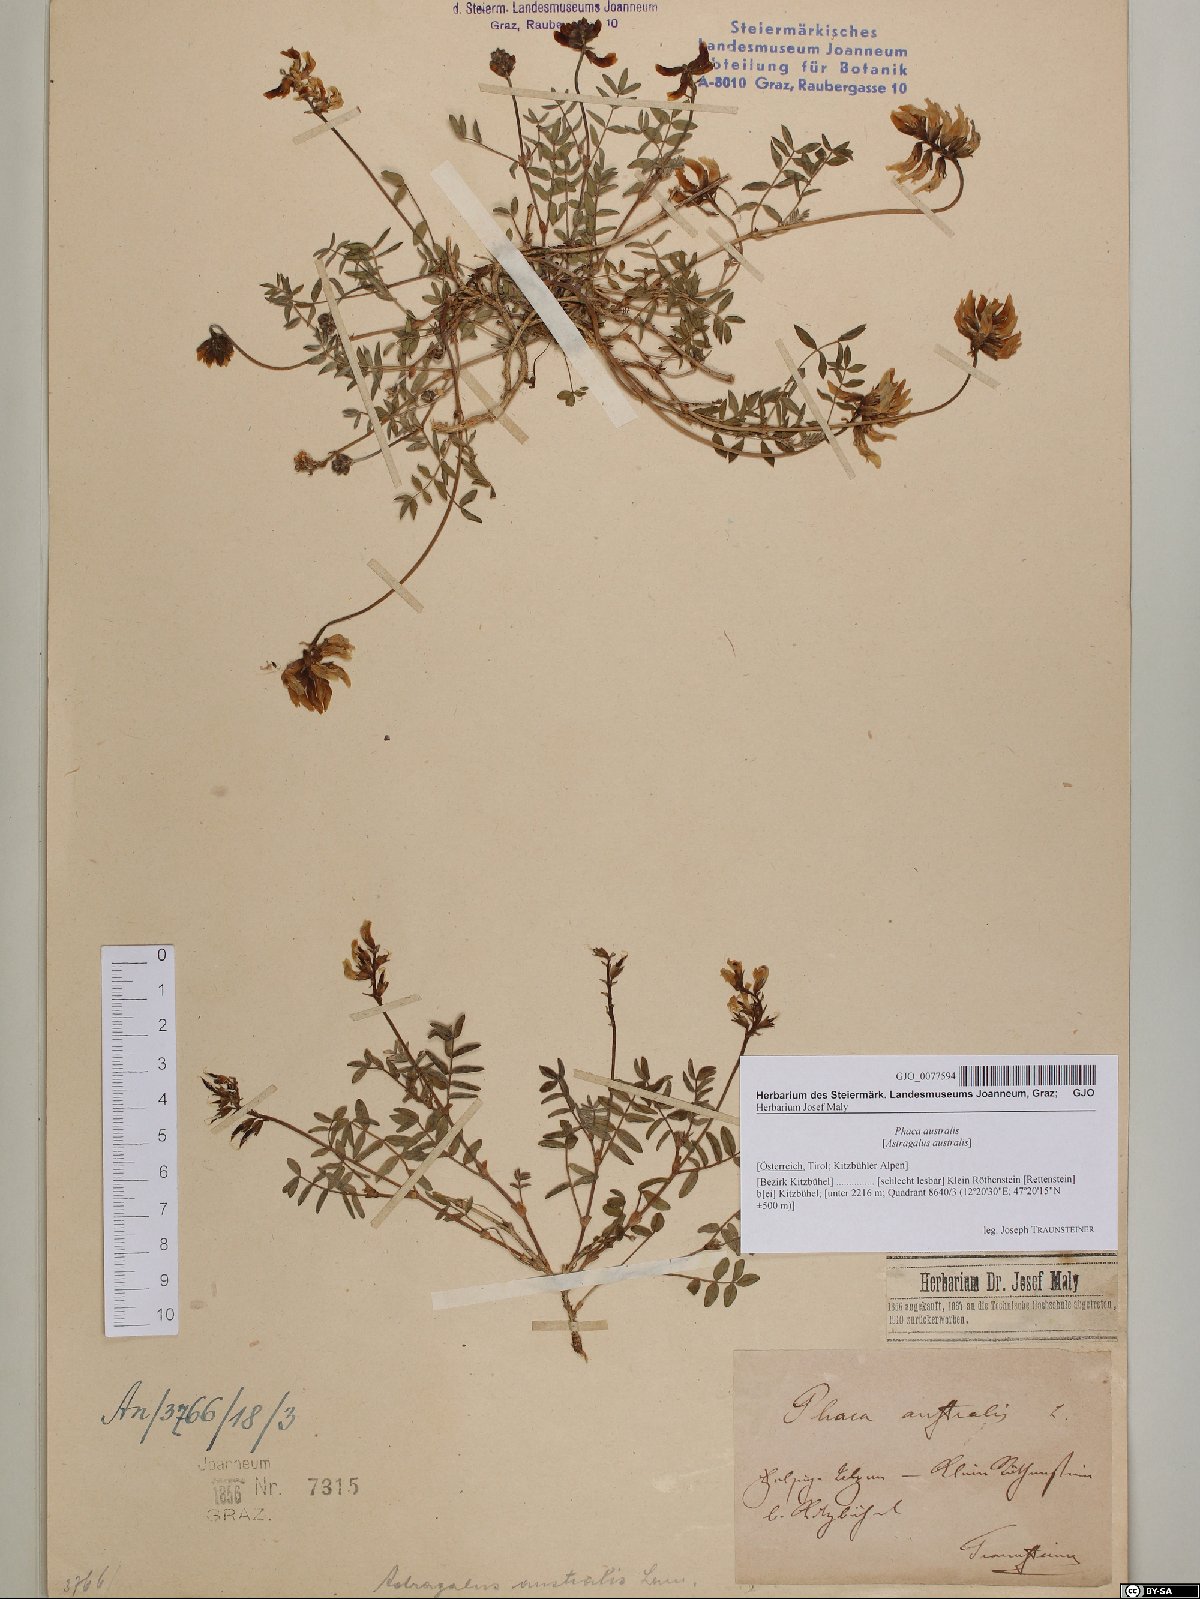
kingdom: Plantae
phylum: Tracheophyta
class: Magnoliopsida
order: Fabales
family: Fabaceae
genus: Astragalus
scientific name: Astragalus australis
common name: Indian milk-vetch
